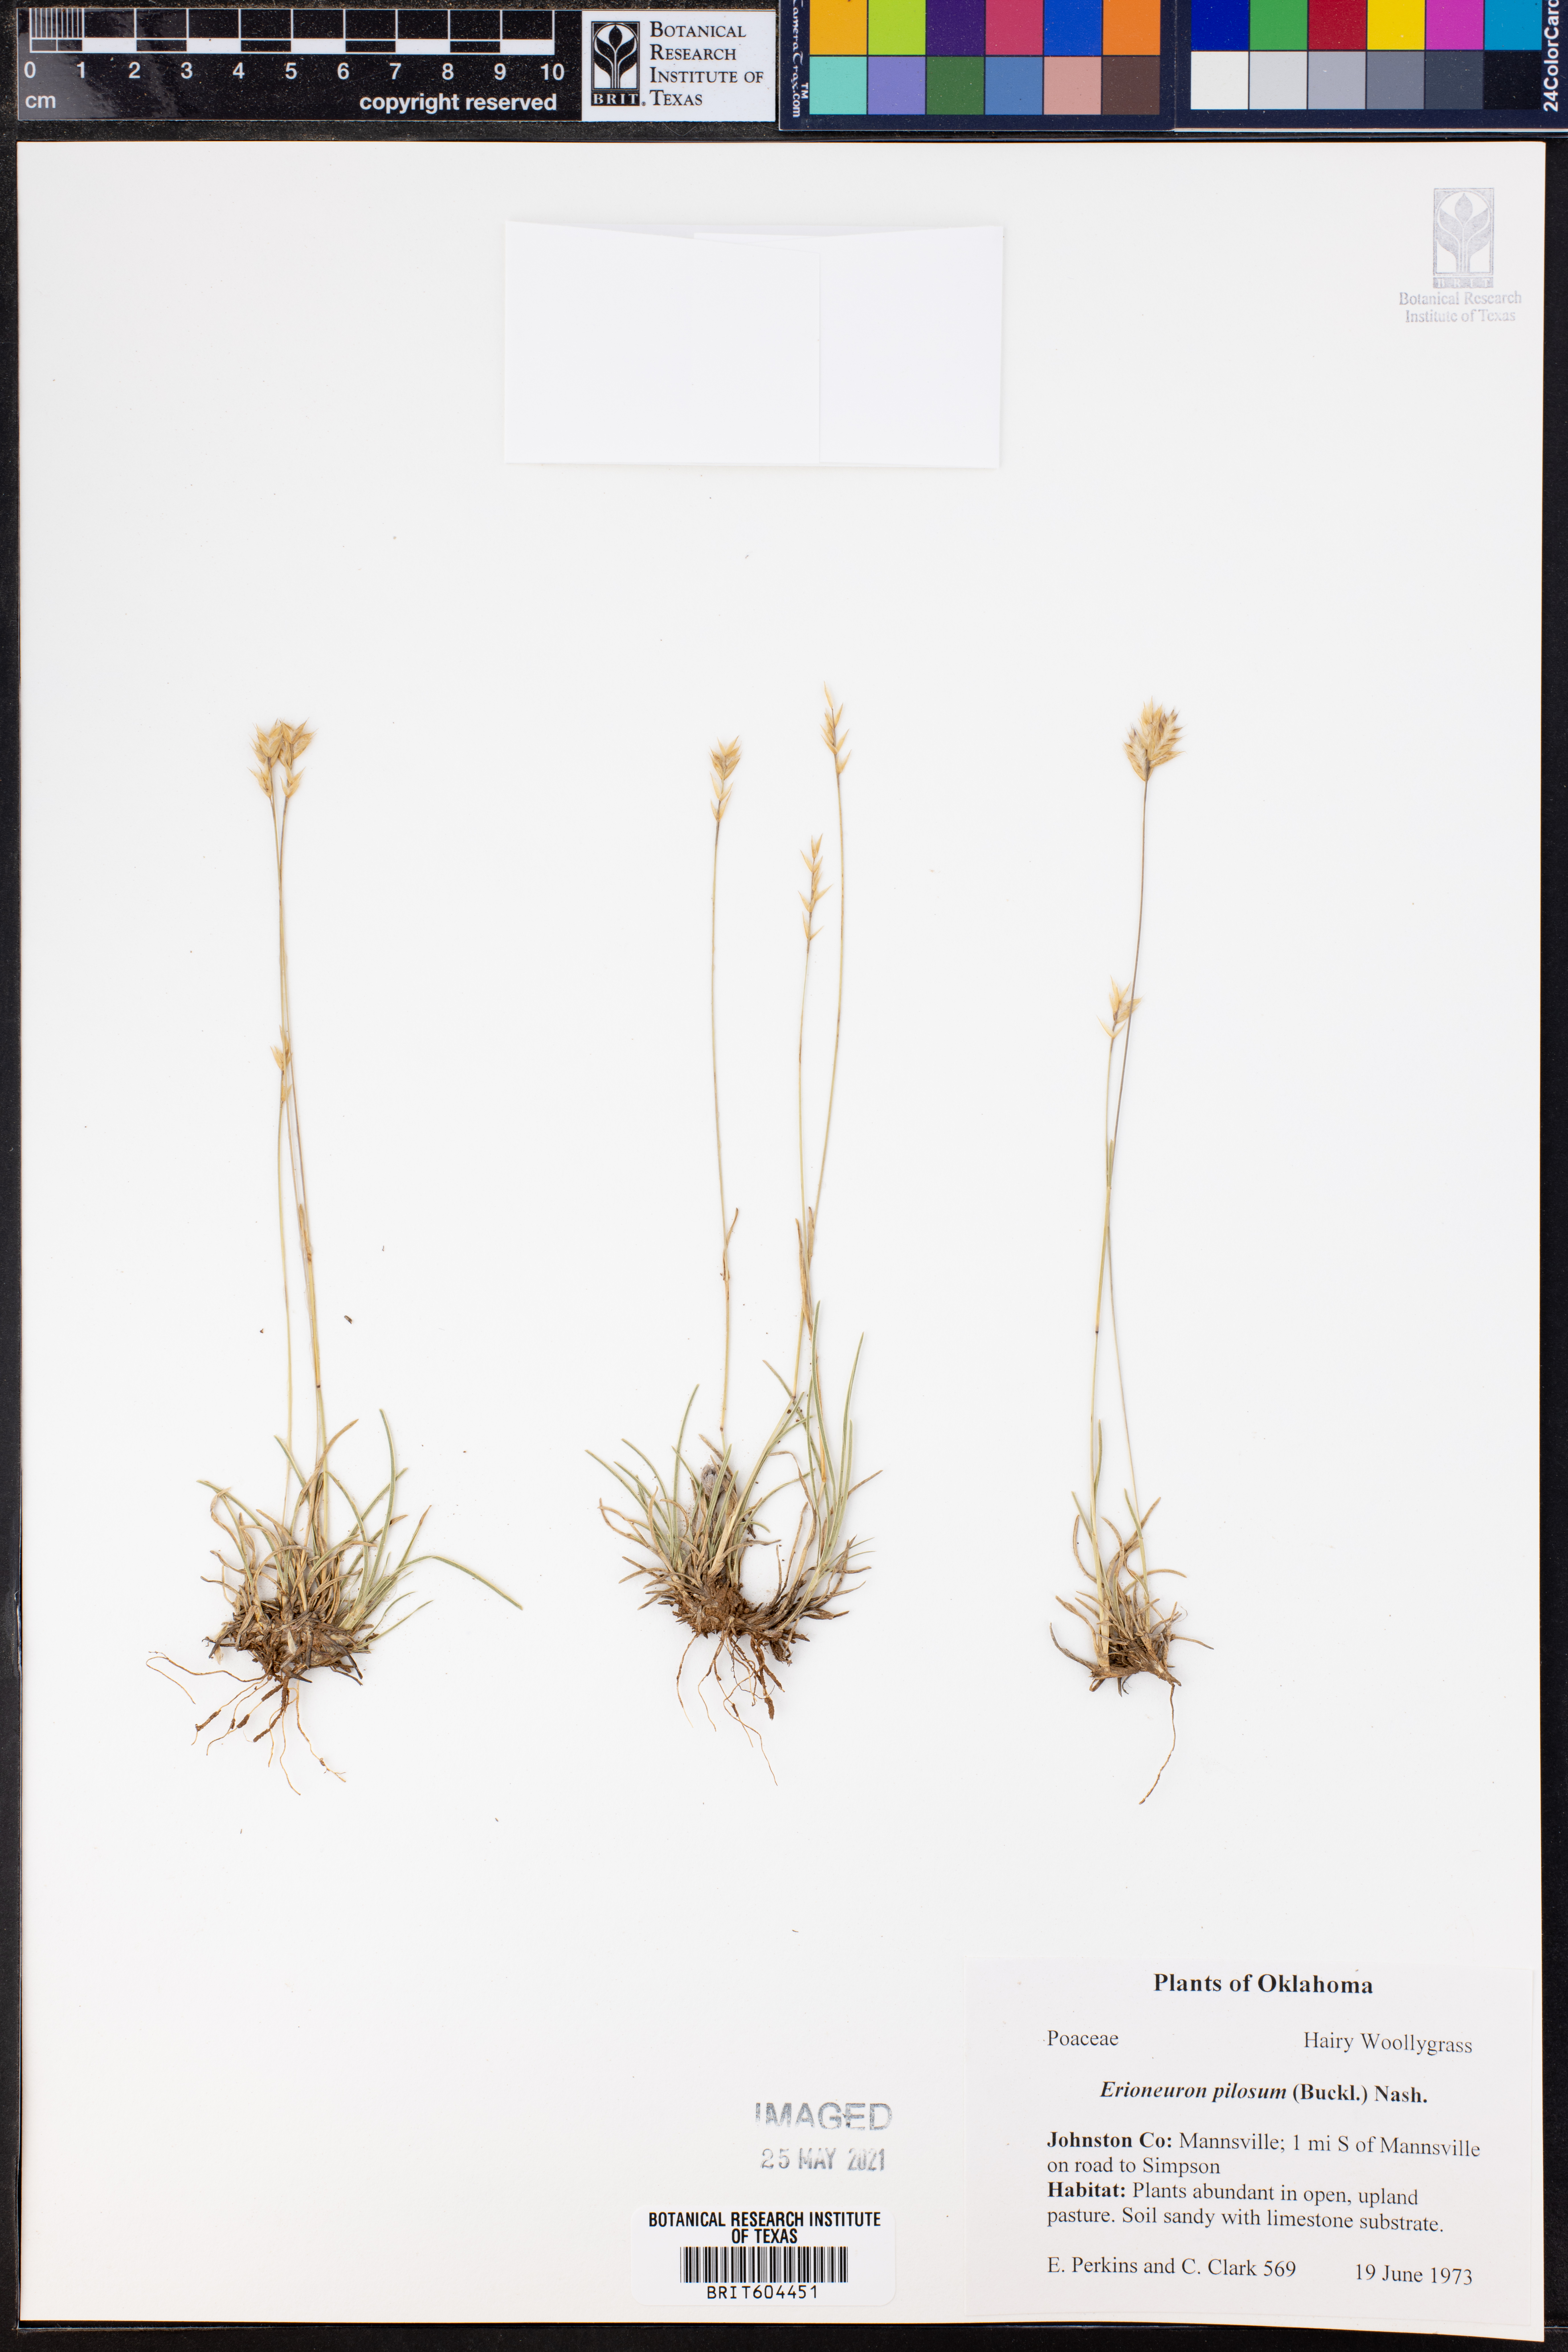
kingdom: Plantae
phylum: Tracheophyta
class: Liliopsida
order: Poales
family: Poaceae
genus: Erioneuron
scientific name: Erioneuron pilosum
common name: Hairy woolly grass
